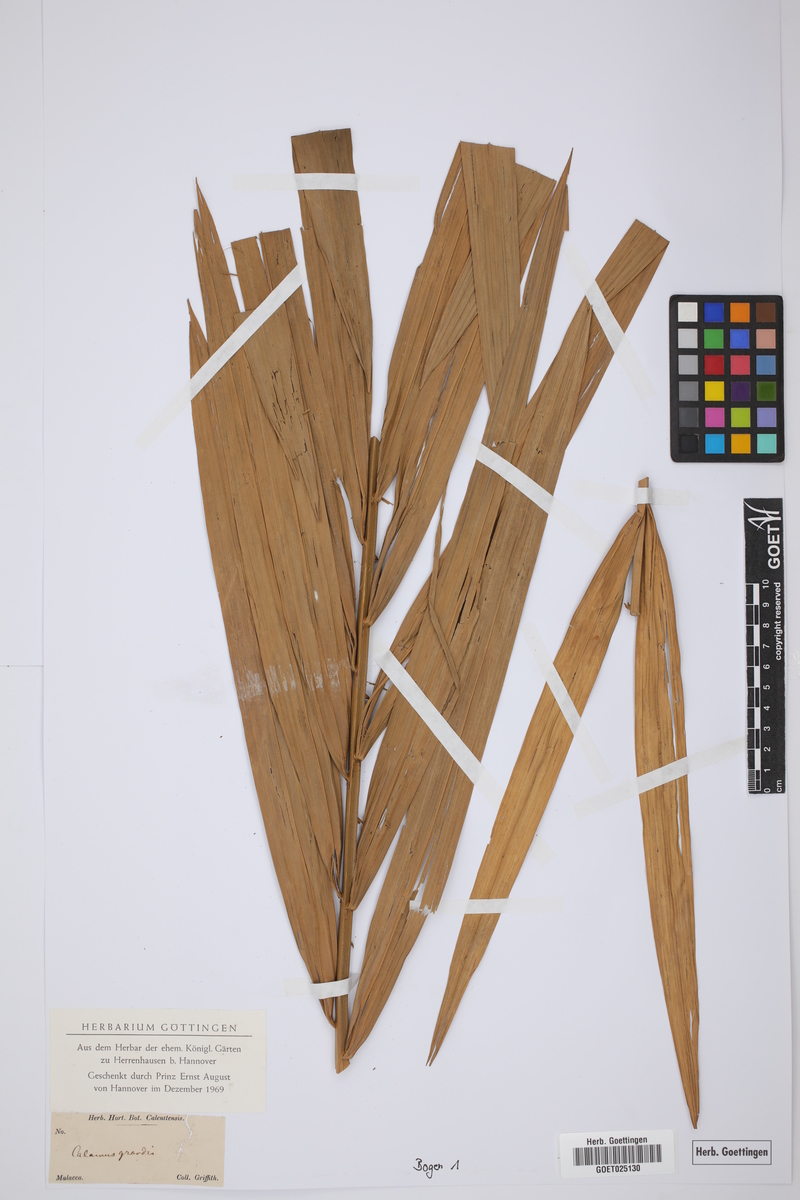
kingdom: Plantae
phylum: Tracheophyta
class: Liliopsida
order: Arecales
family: Arecaceae
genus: Calamus
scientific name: Calamus melanochaetes
